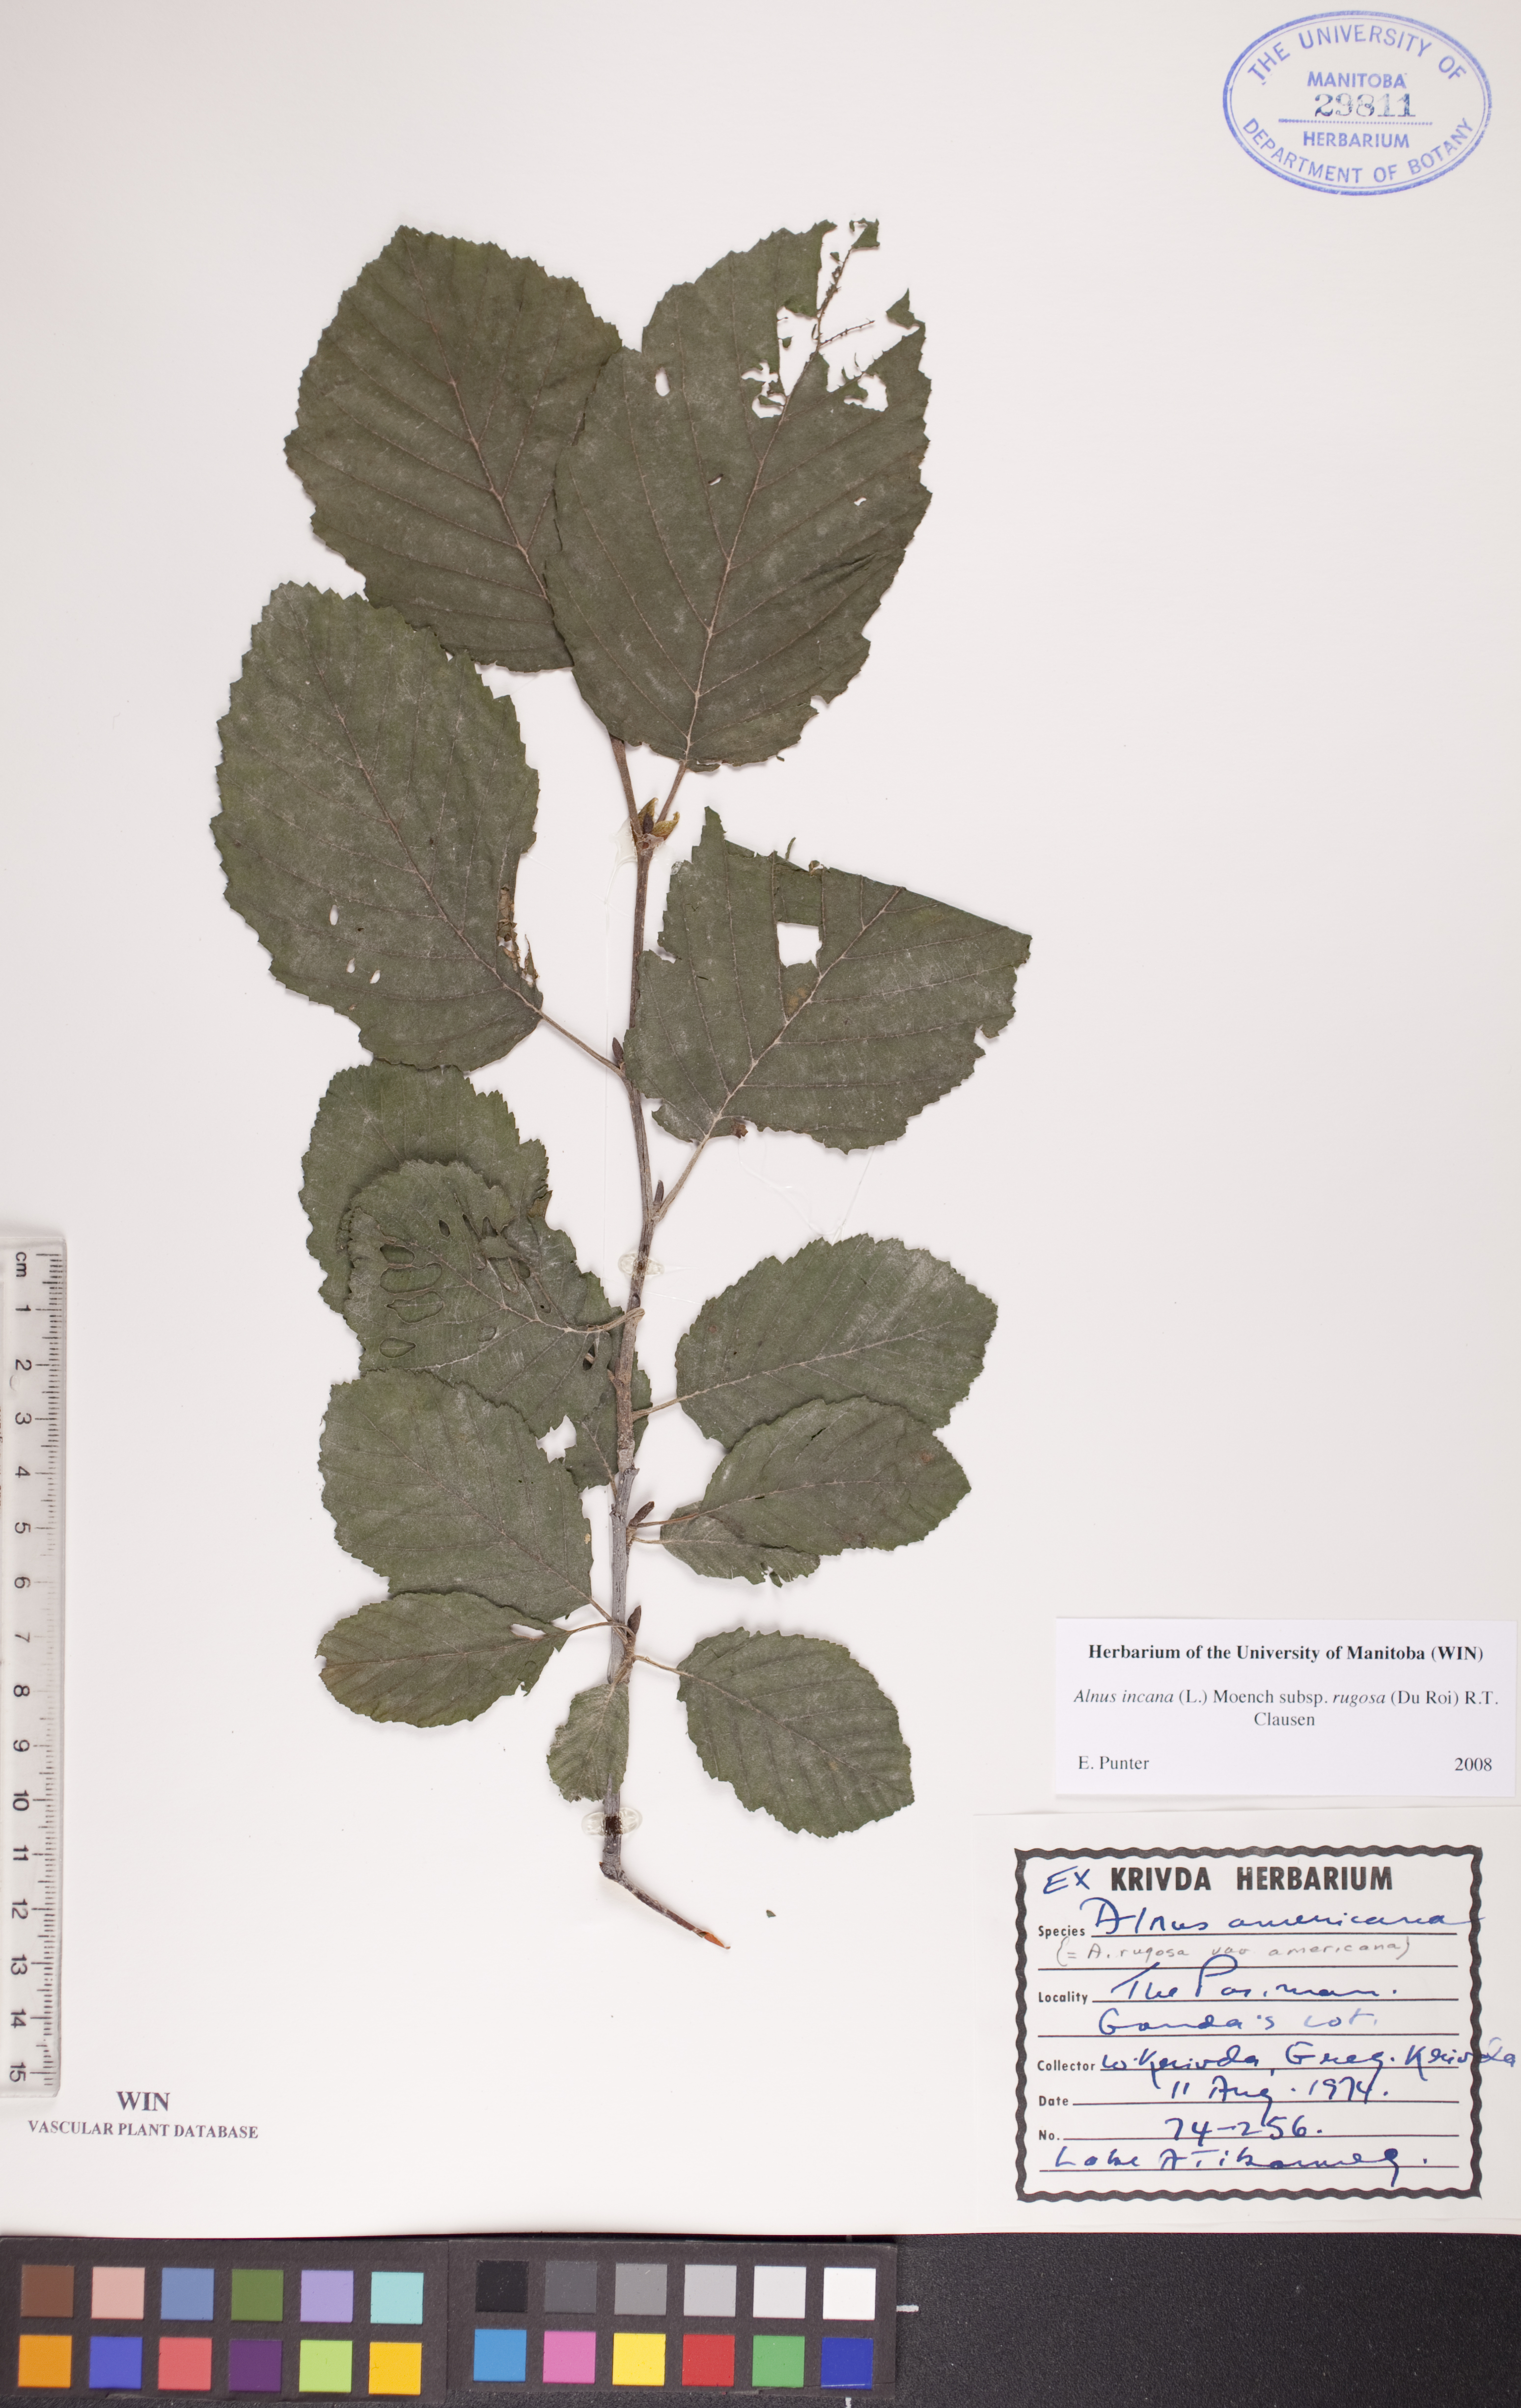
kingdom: Plantae
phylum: Tracheophyta
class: Magnoliopsida
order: Fagales
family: Betulaceae
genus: Alnus
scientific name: Alnus incana
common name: Grey alder
